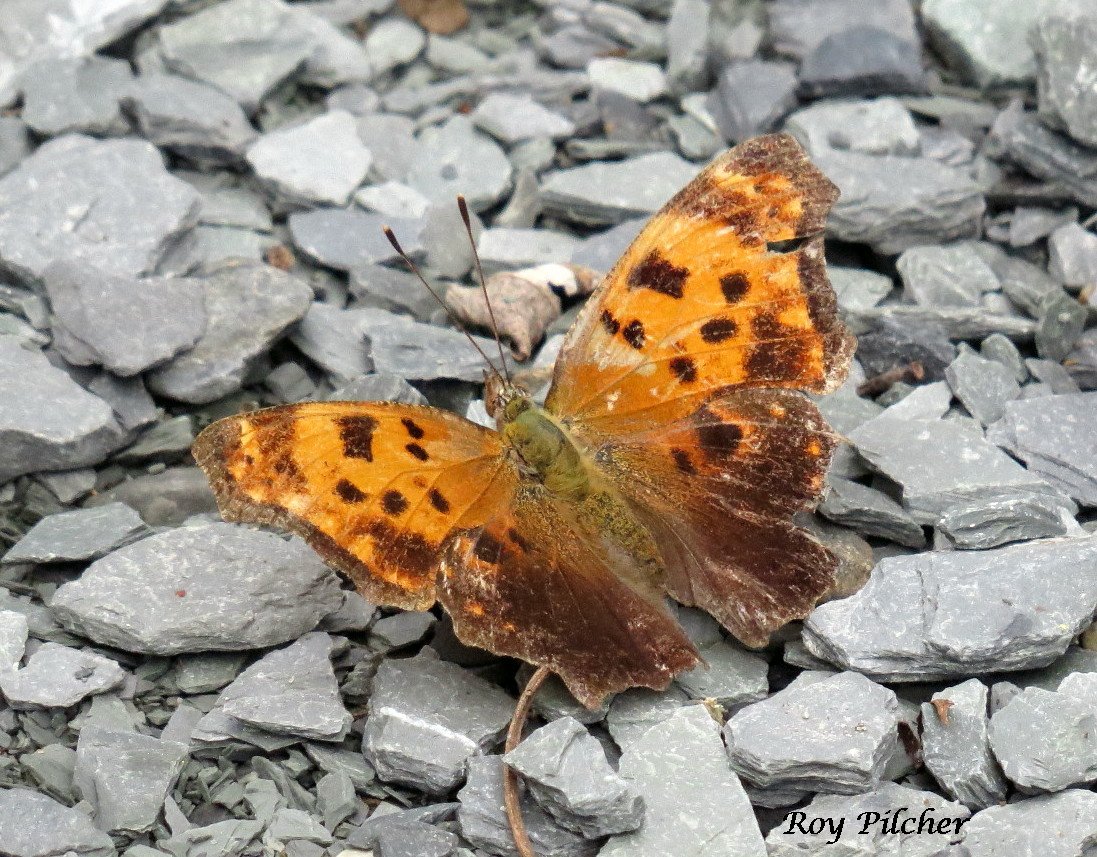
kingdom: Animalia
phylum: Arthropoda
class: Insecta
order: Lepidoptera
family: Nymphalidae
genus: Polygonia
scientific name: Polygonia comma
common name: Eastern Comma
